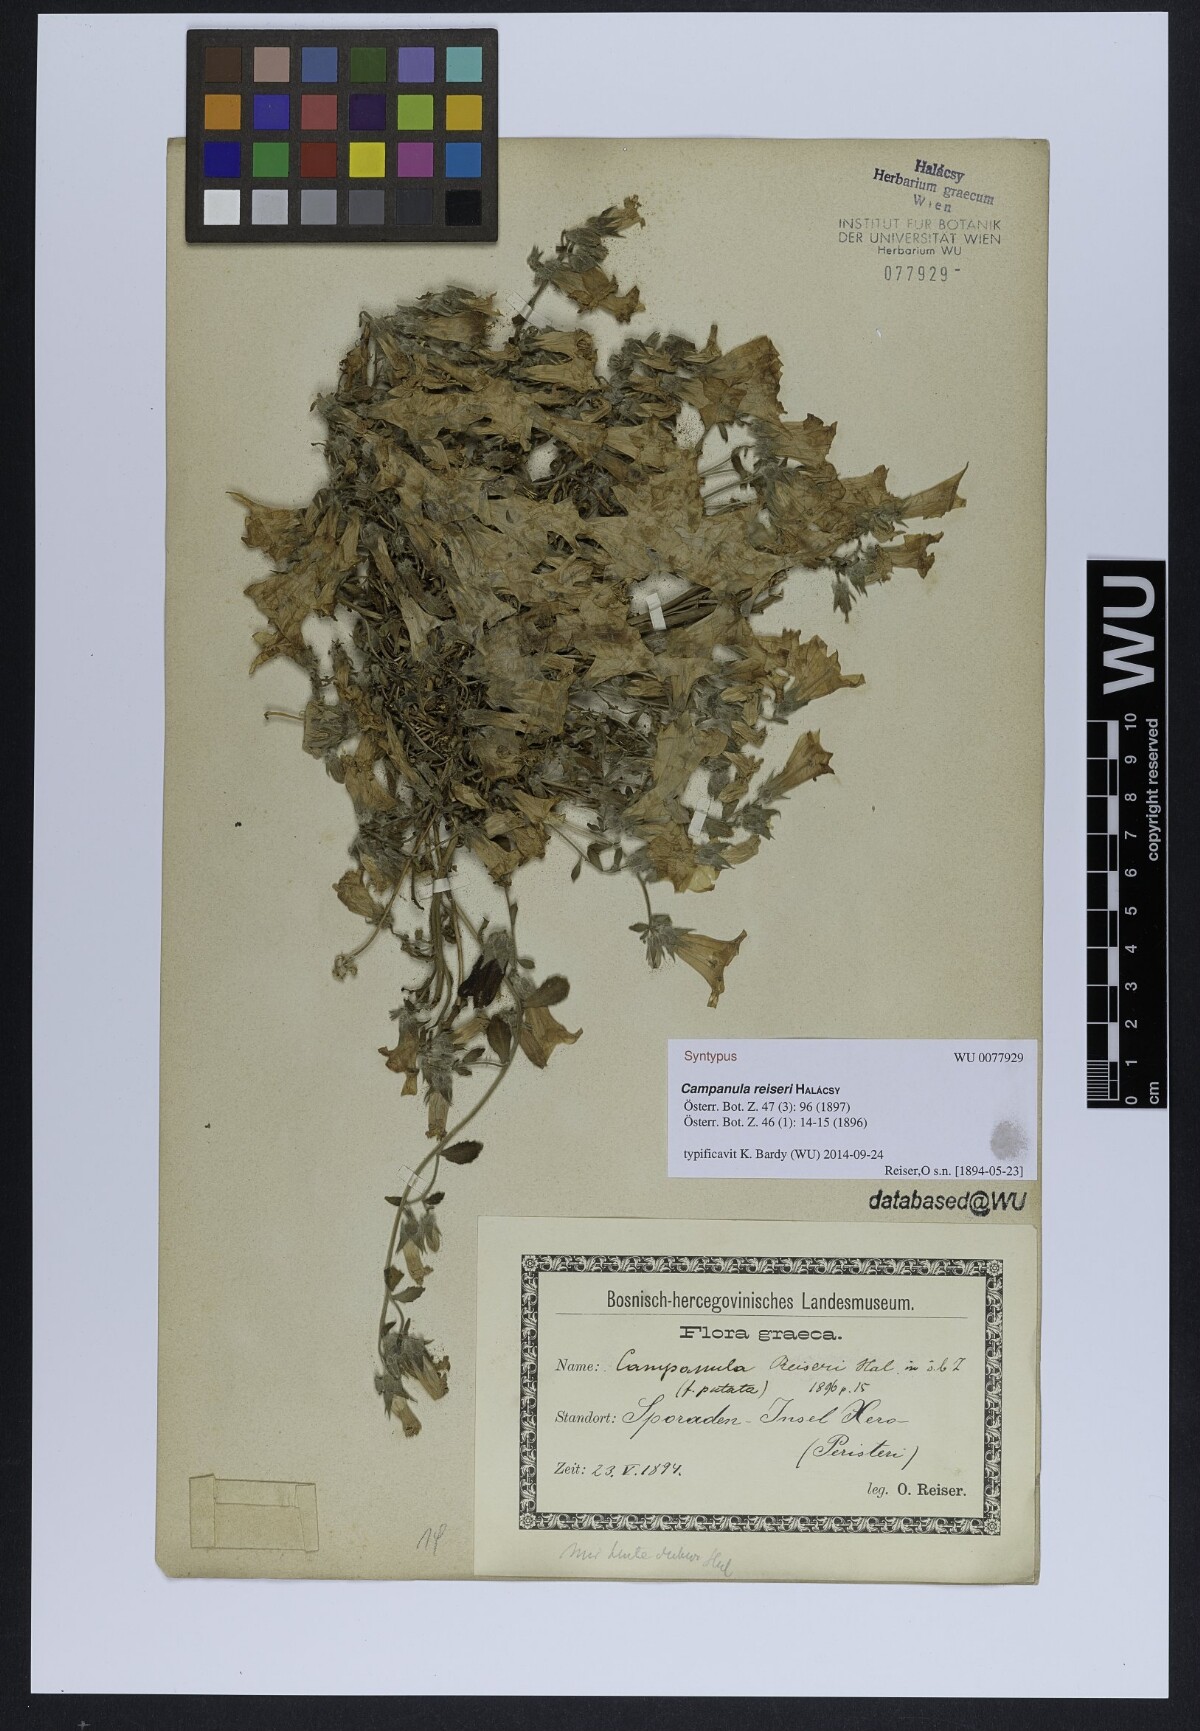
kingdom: Plantae
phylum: Tracheophyta
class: Magnoliopsida
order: Asterales
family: Campanulaceae
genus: Campanula
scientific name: Campanula reiseri
